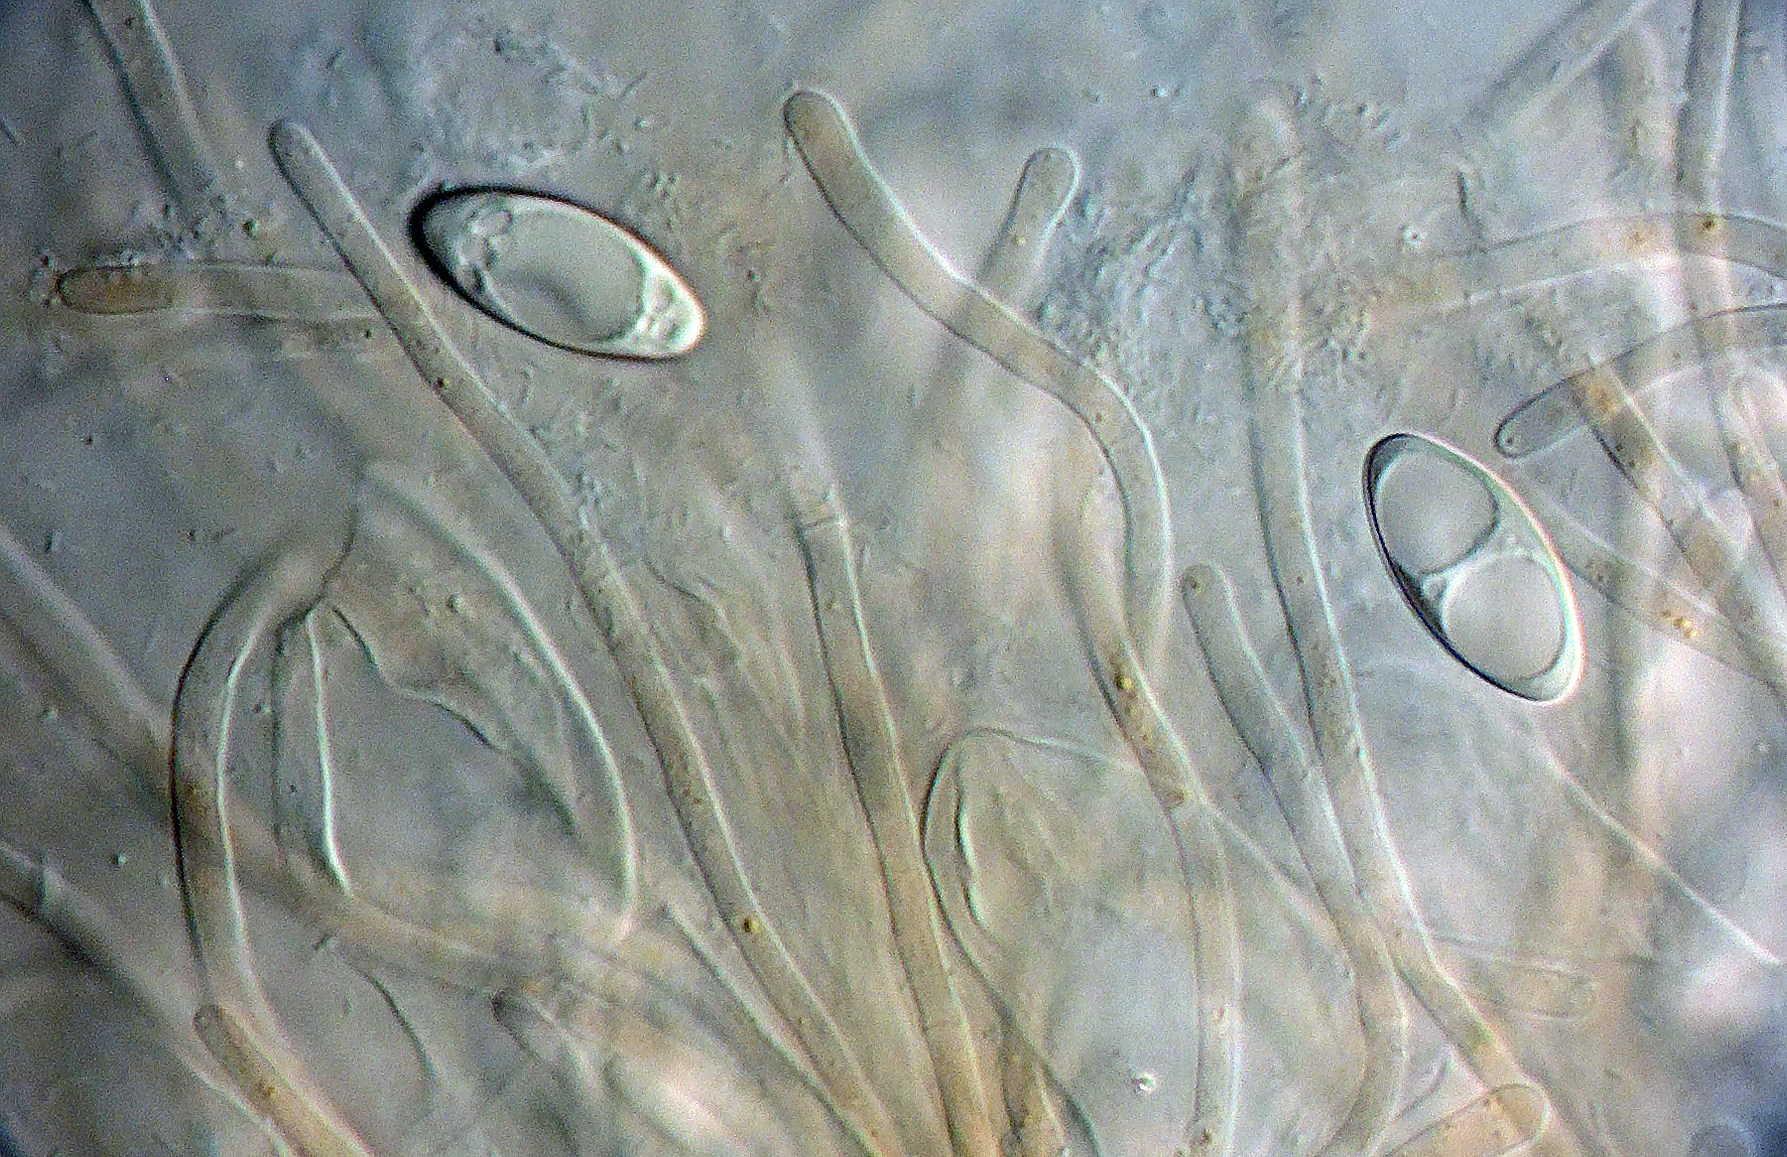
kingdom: Fungi
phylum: Ascomycota
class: Pezizomycetes
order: Pezizales
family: Pyronemataceae
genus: Octospora
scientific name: Octospora gemmicola
